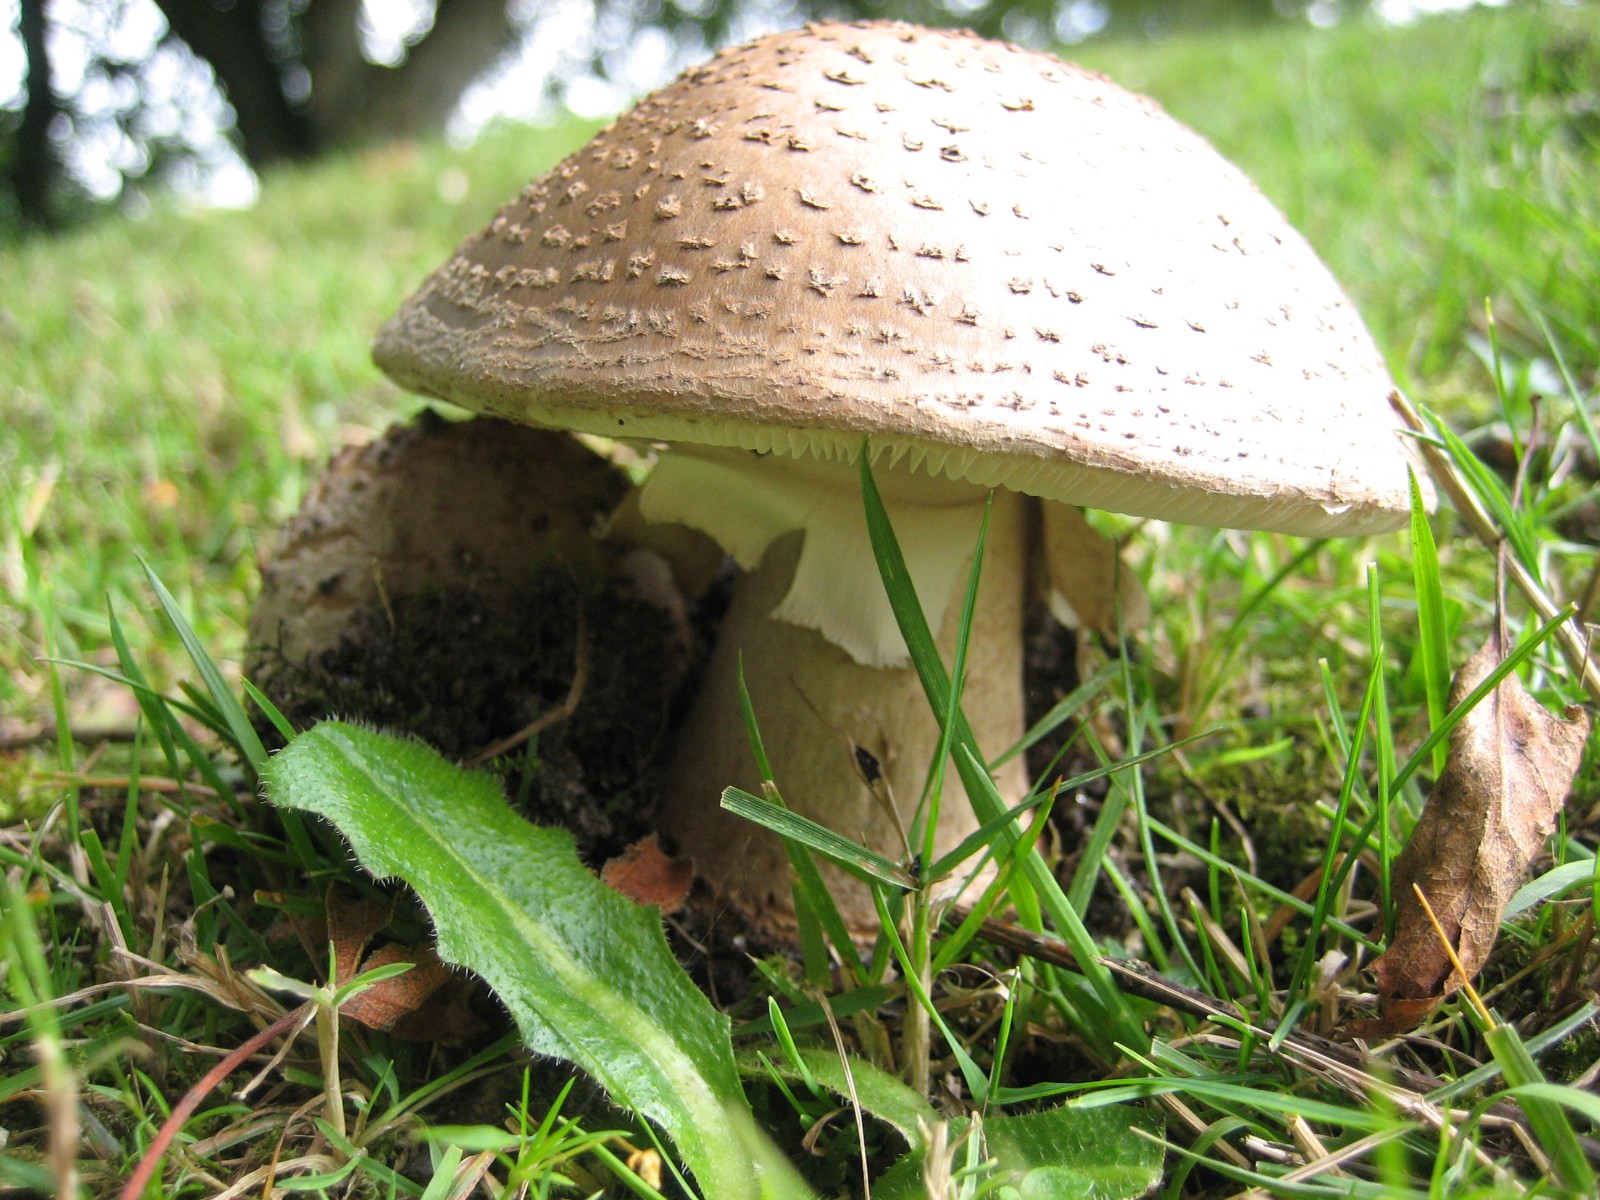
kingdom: Fungi
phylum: Basidiomycota
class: Agaricomycetes
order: Agaricales
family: Amanitaceae
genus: Amanita
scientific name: Amanita rubescens
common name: rødmende fluesvamp
